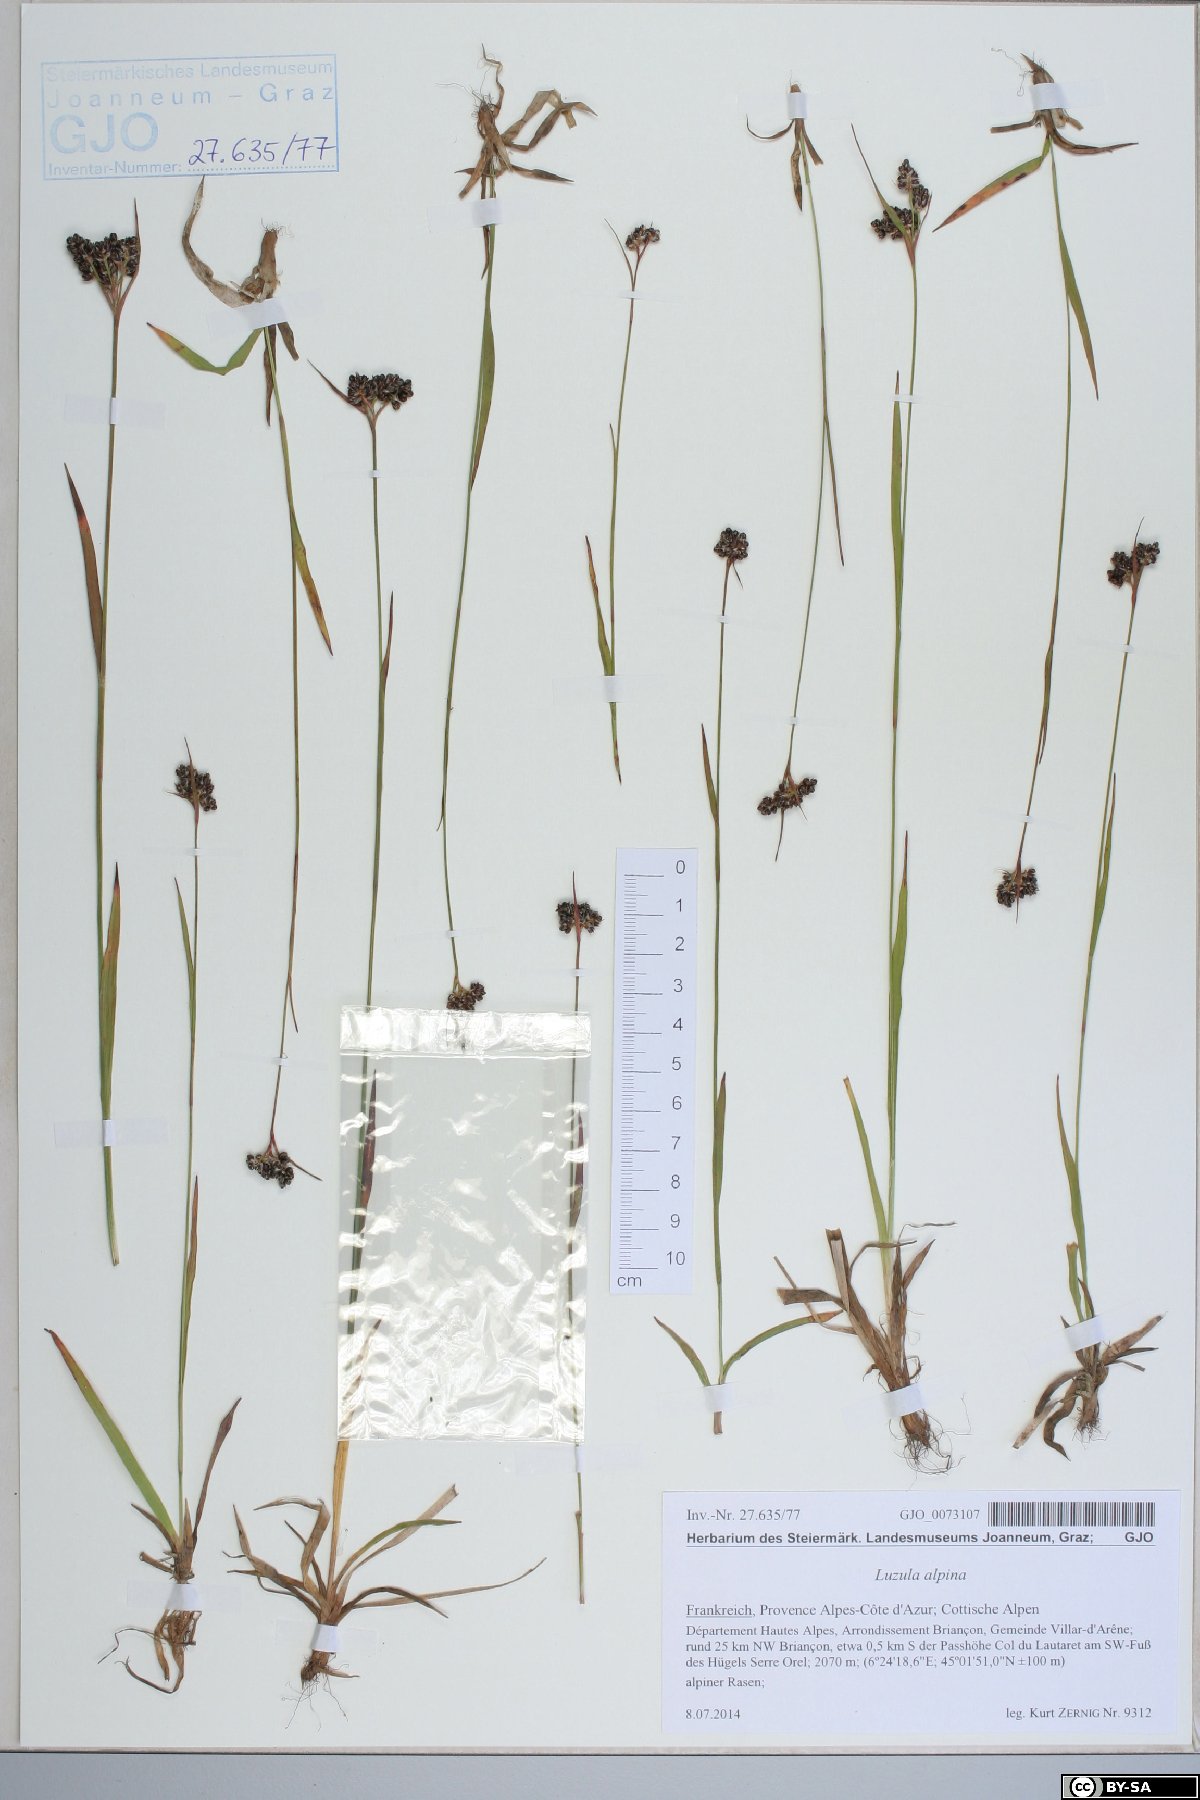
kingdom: Plantae
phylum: Tracheophyta
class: Liliopsida
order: Poales
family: Juncaceae
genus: Luzula
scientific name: Luzula alpina
